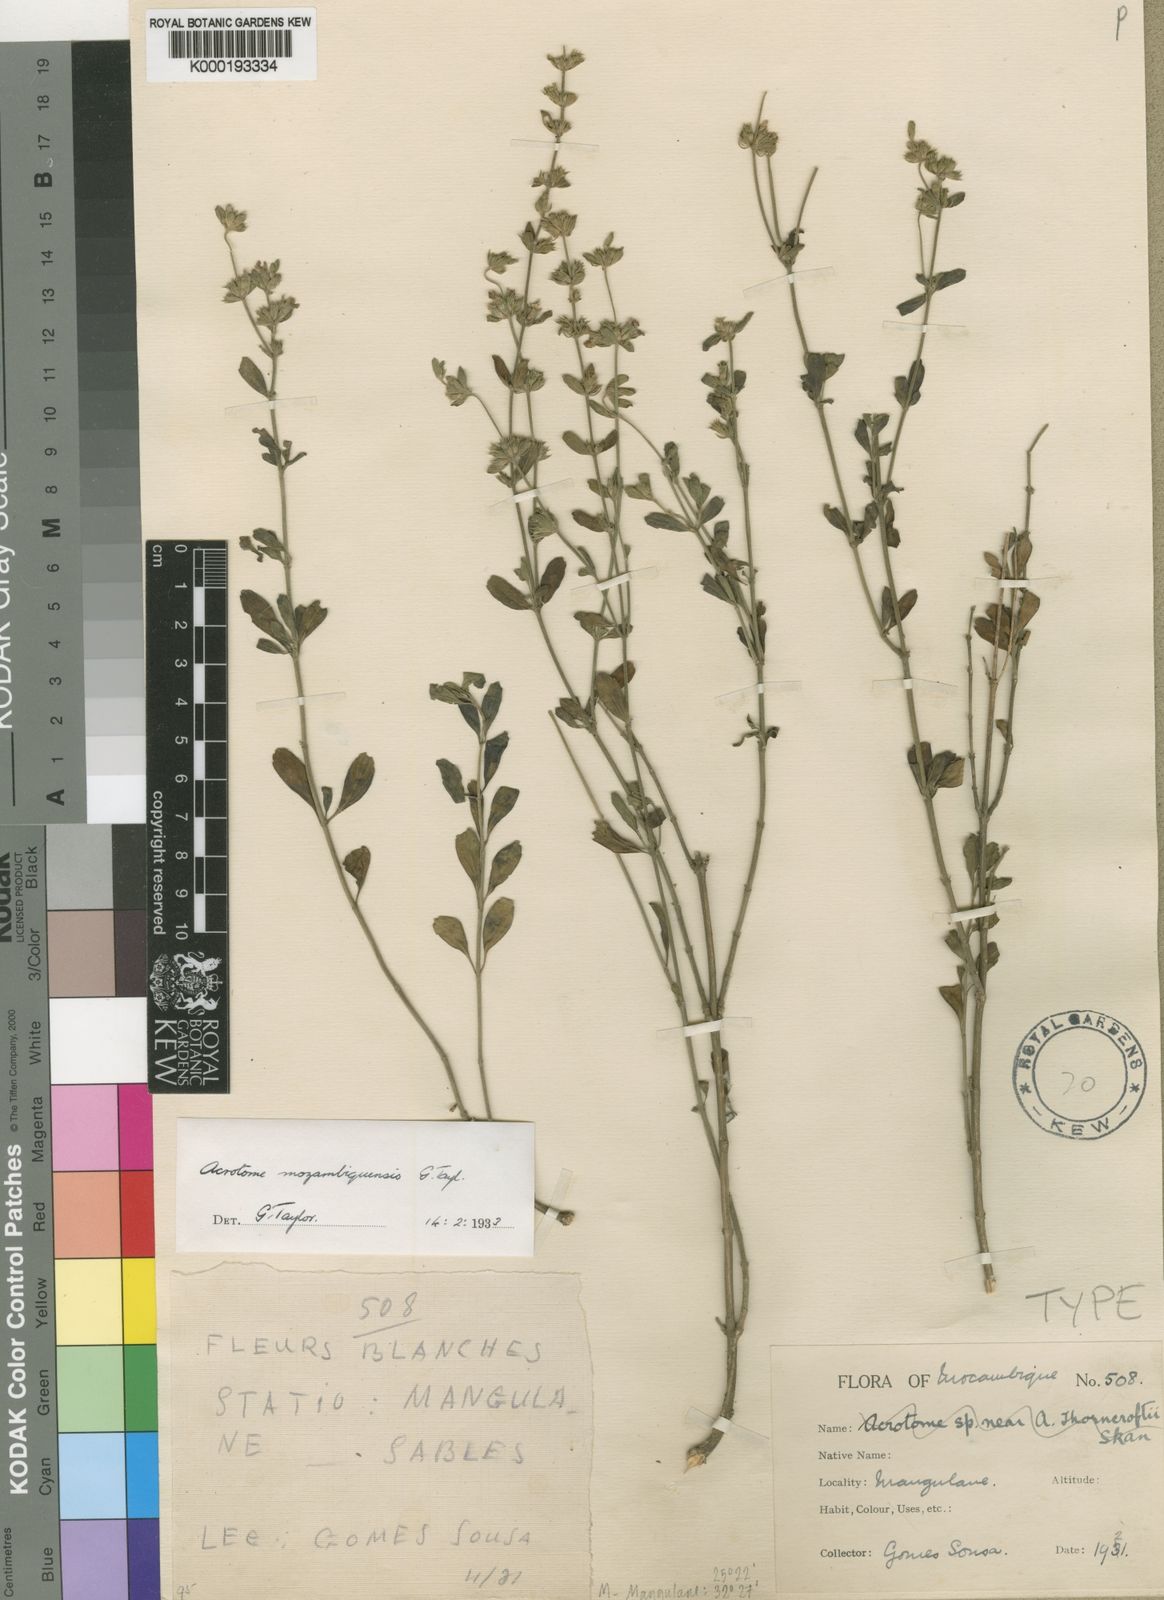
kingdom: Plantae
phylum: Tracheophyta
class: Magnoliopsida
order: Lamiales
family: Lamiaceae
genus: Acrotome
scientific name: Acrotome mozambiquensis
